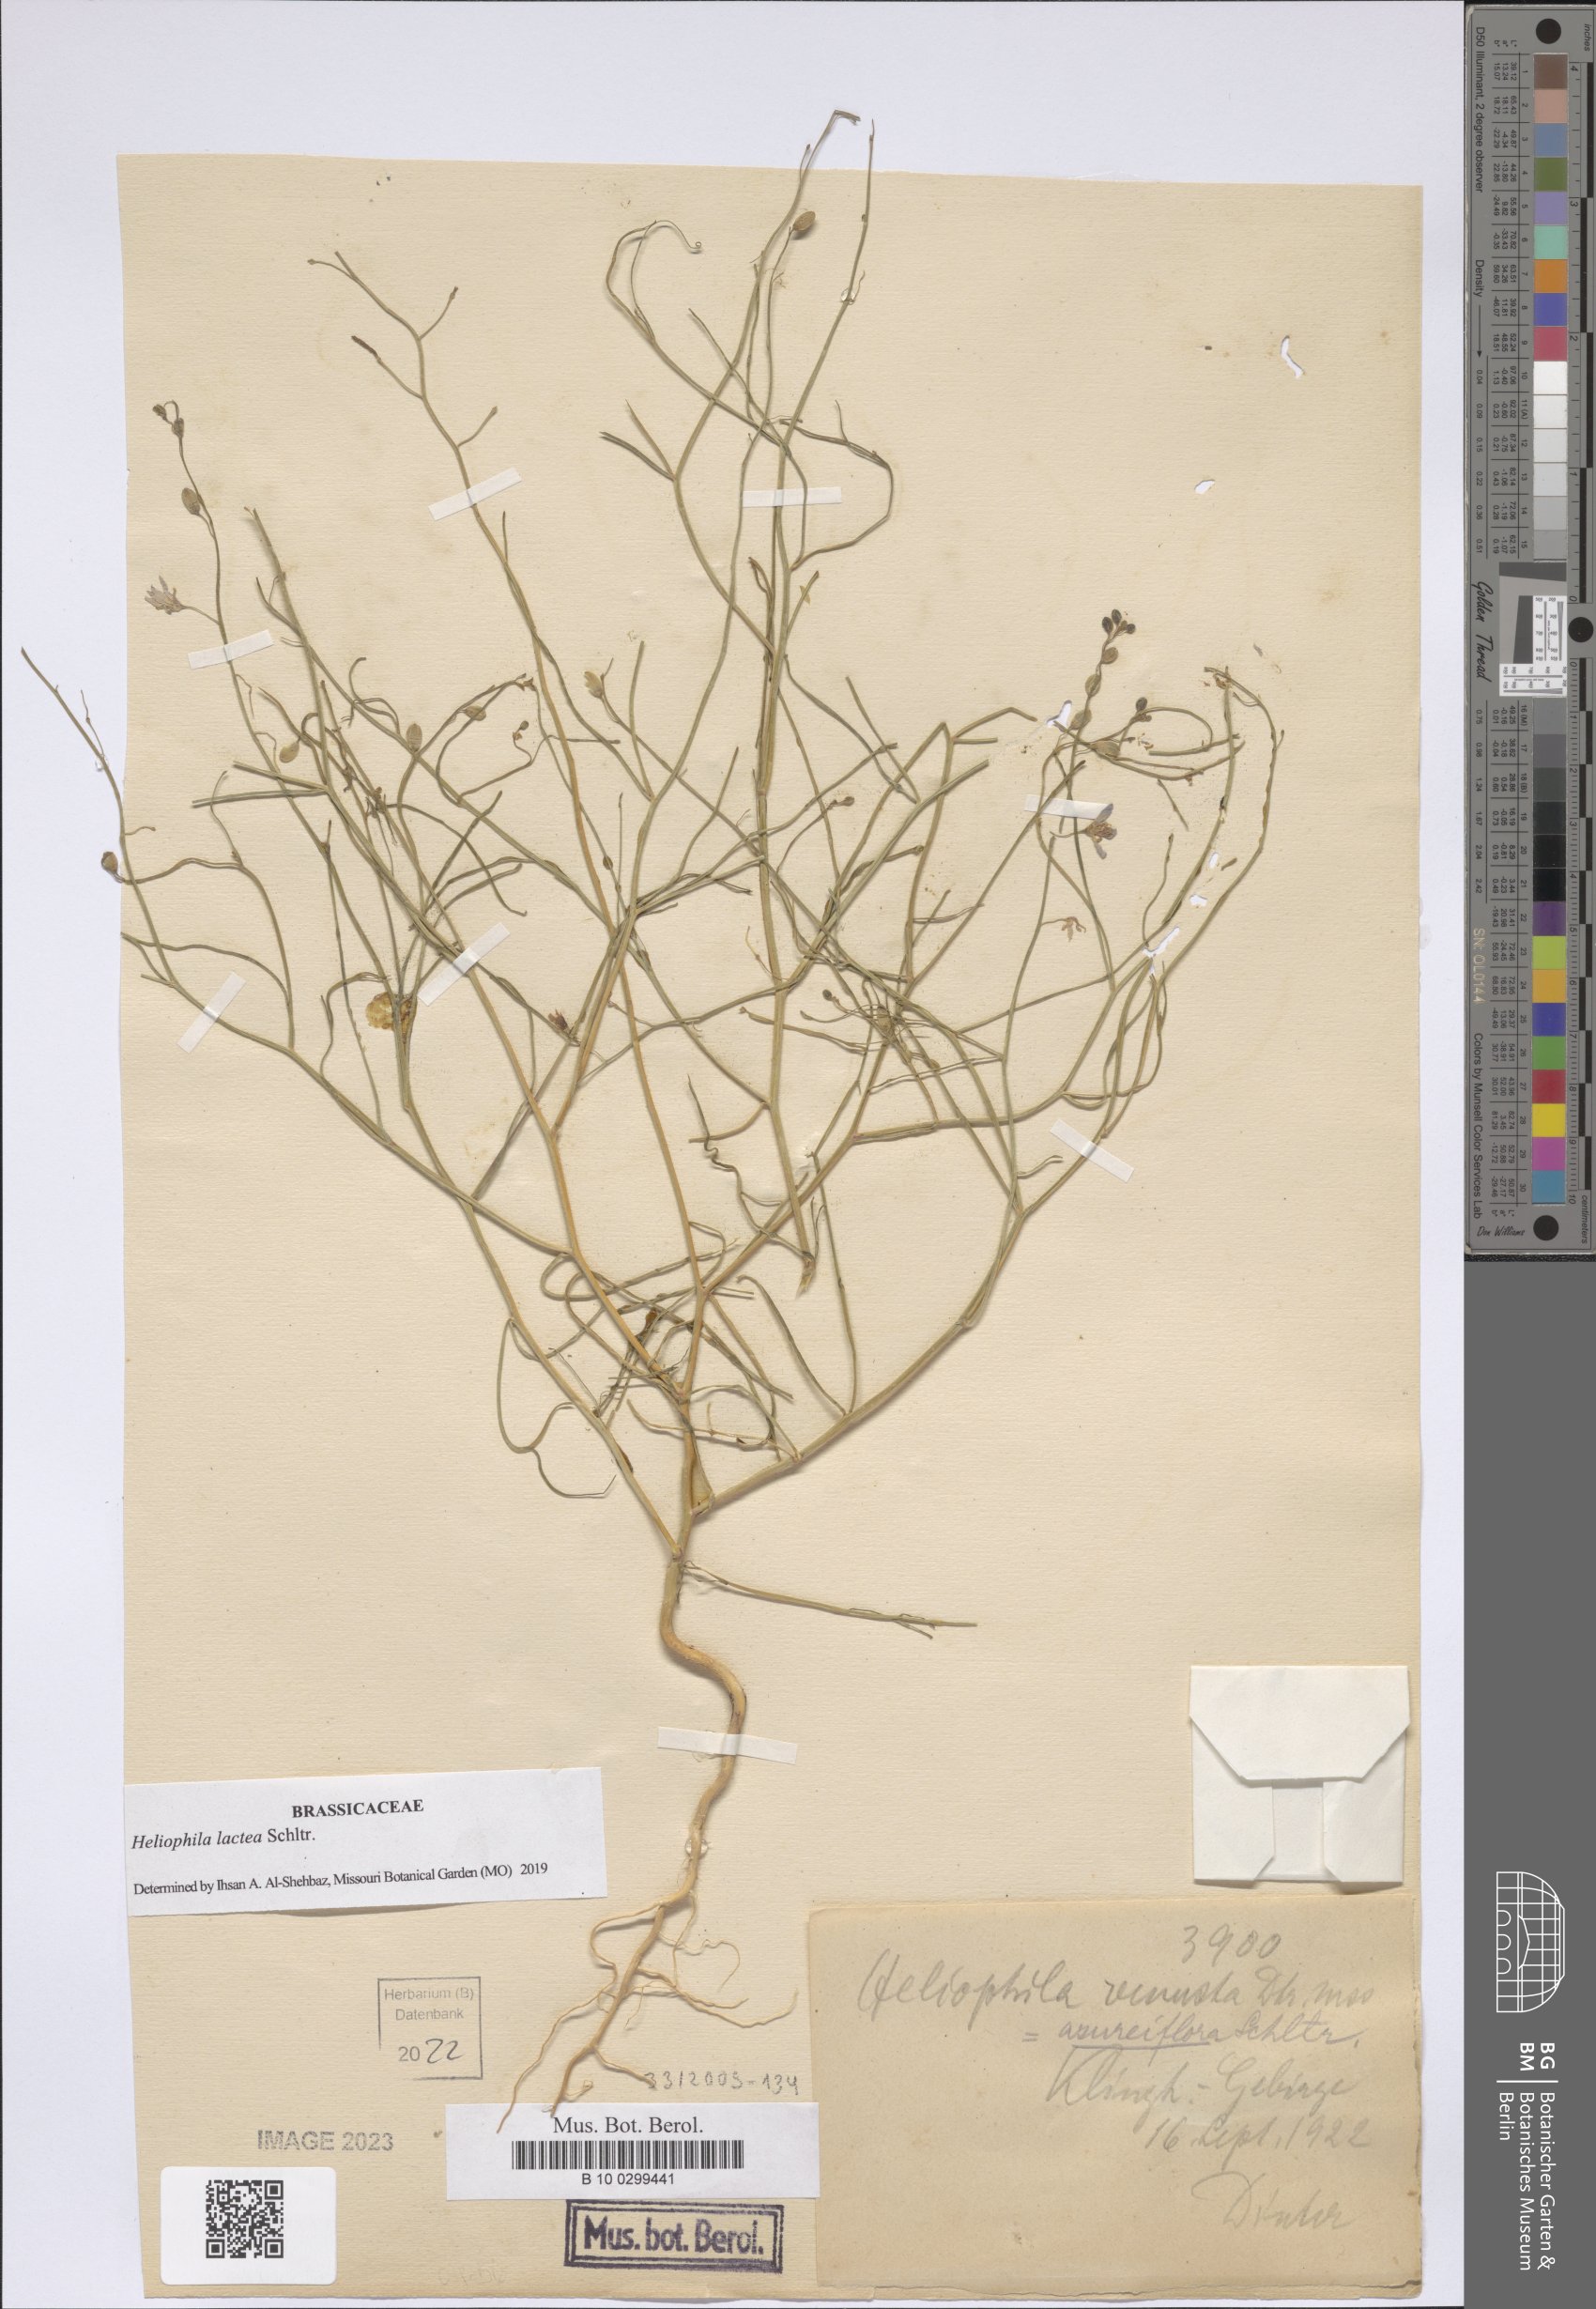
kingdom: Plantae
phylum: Tracheophyta
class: Magnoliopsida
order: Brassicales
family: Brassicaceae
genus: Heliophila
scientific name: Heliophila lactea
